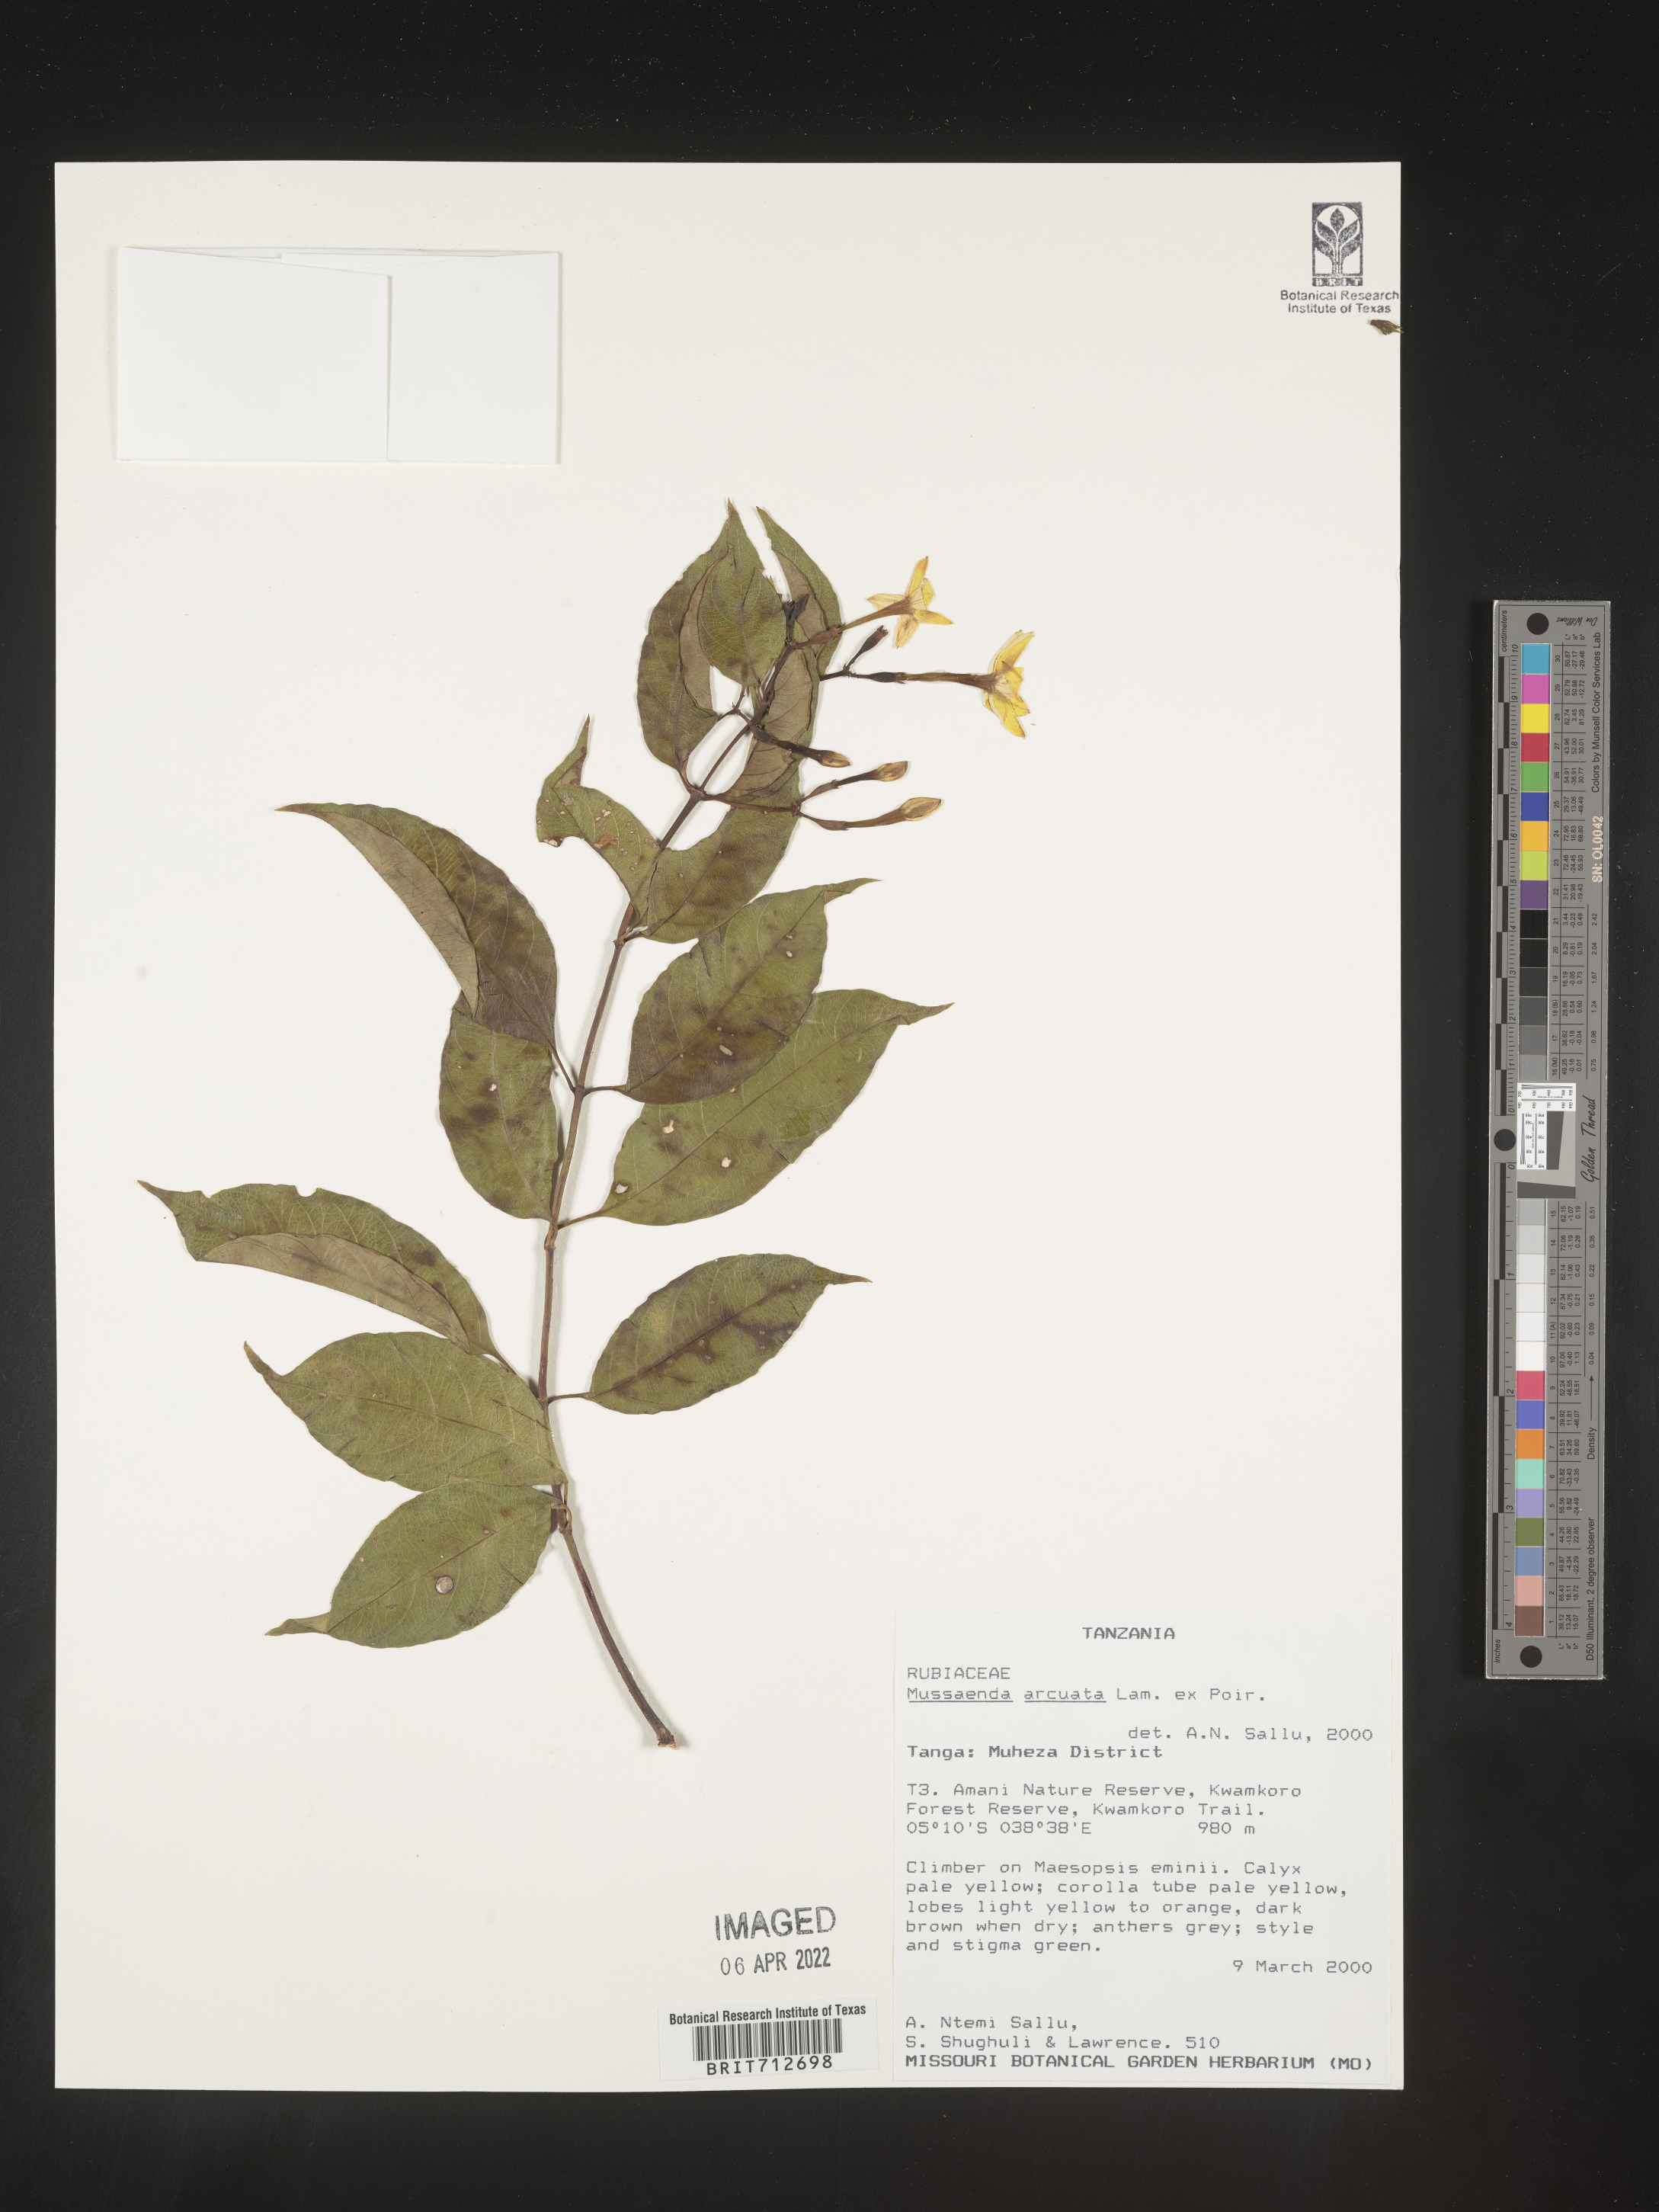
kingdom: Plantae
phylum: Tracheophyta
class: Magnoliopsida
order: Gentianales
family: Rubiaceae
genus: Mussaenda
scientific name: Mussaenda
